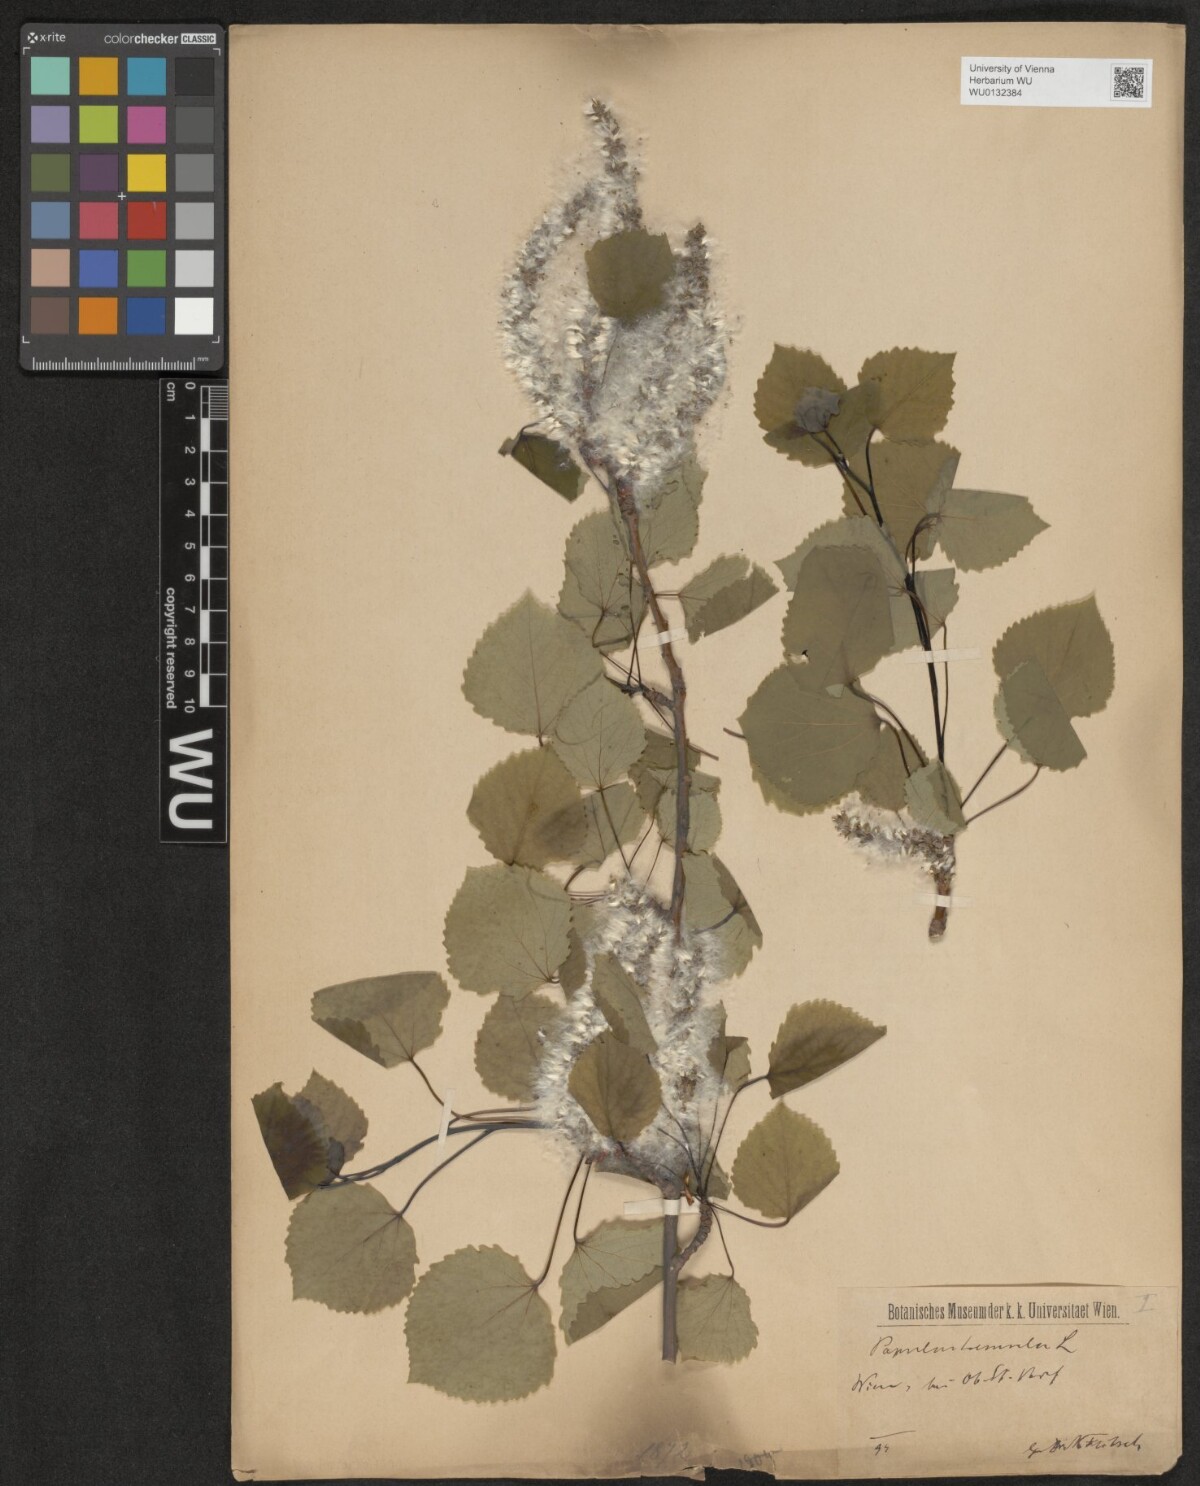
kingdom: Plantae
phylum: Tracheophyta
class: Magnoliopsida
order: Malpighiales
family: Salicaceae
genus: Populus
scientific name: Populus tremula
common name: European aspen
